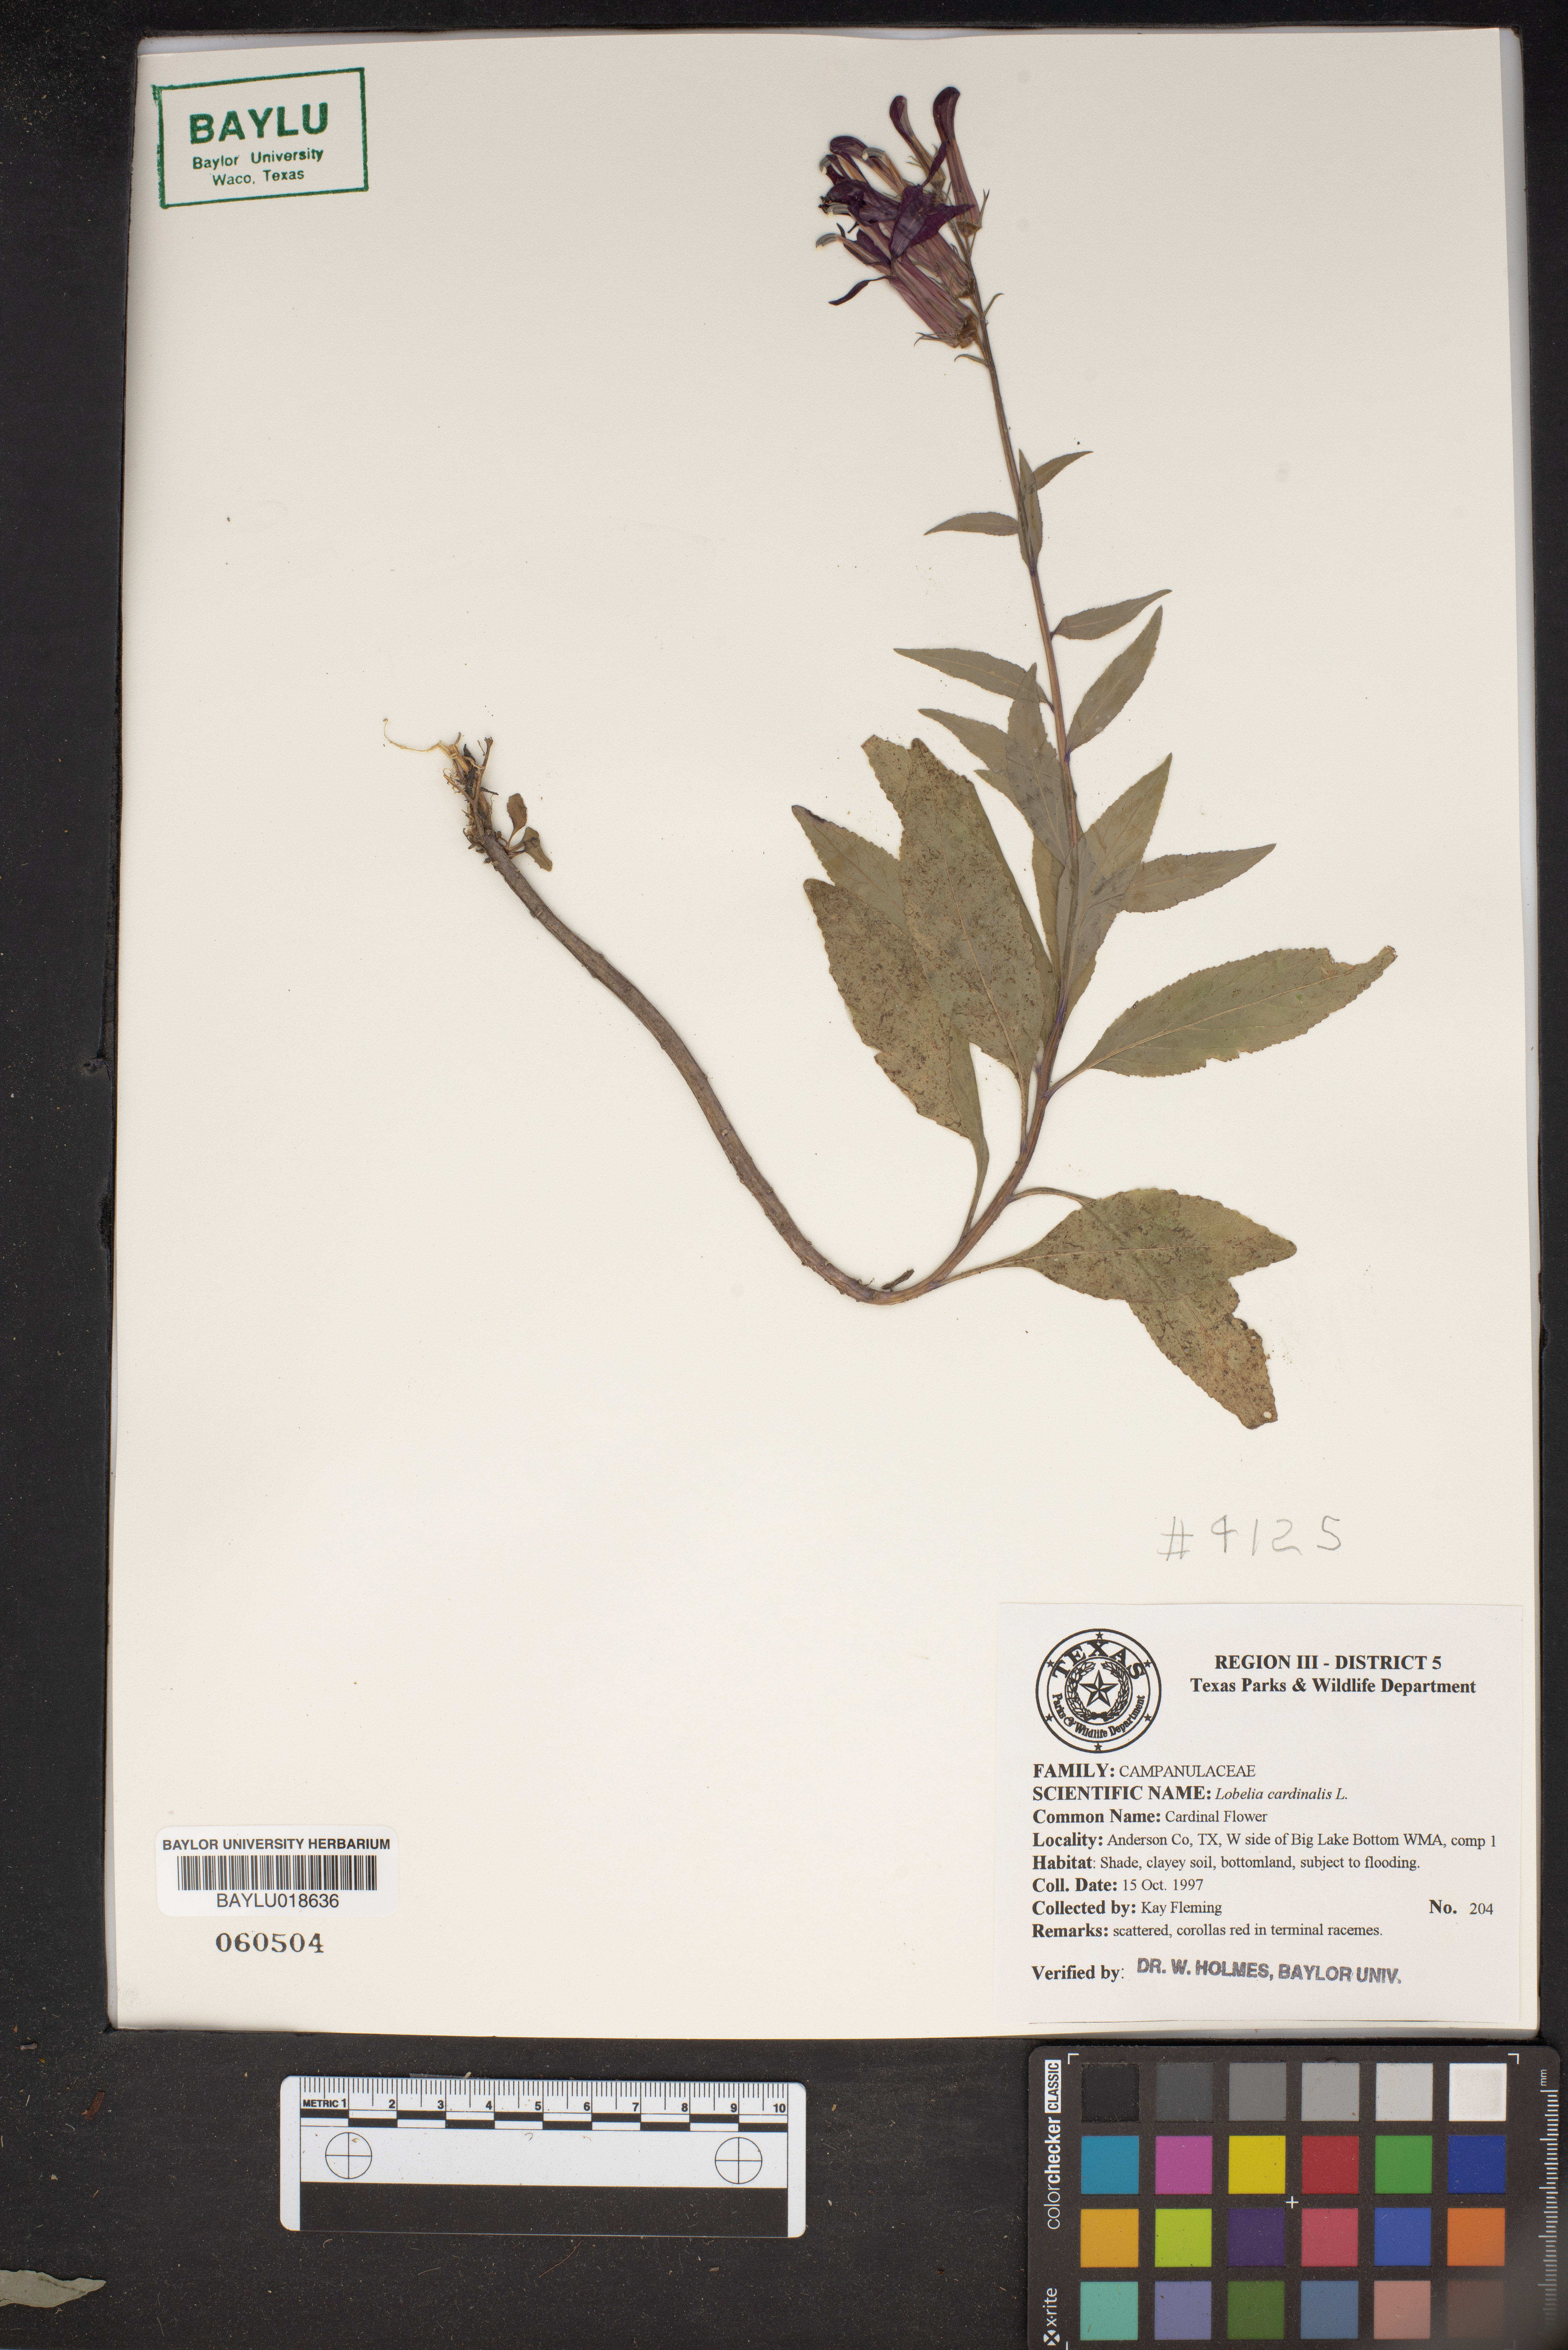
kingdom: Plantae
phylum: Tracheophyta
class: Magnoliopsida
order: Asterales
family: Campanulaceae
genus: Lobelia
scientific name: Lobelia cardinalis
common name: Cardinal flower
